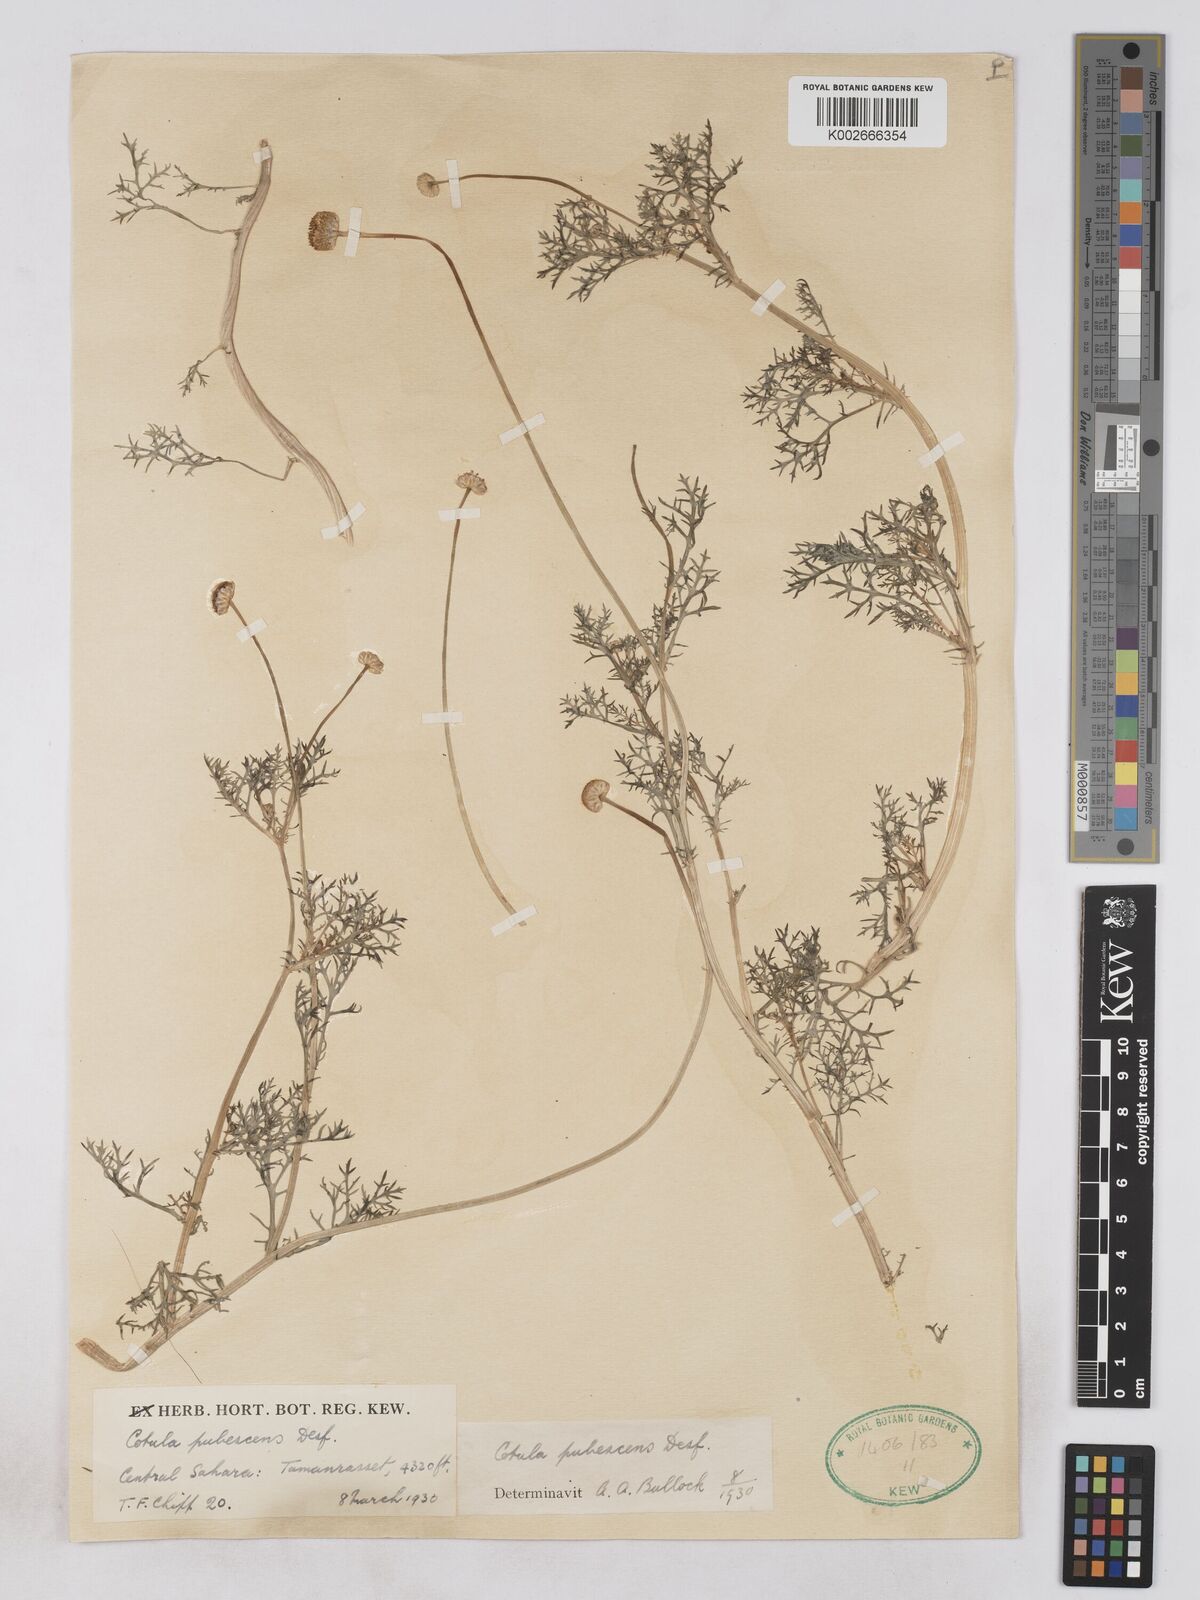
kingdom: Plantae
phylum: Tracheophyta
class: Magnoliopsida
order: Asterales
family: Asteraceae
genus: Otoglyphis
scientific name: Otoglyphis pubescens
